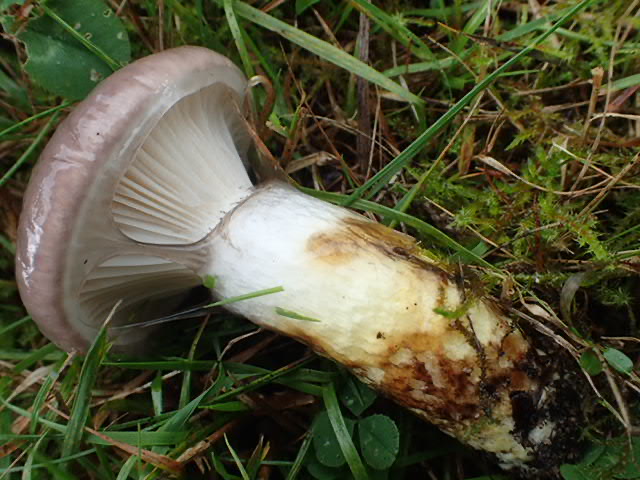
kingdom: Fungi
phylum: Basidiomycota
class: Agaricomycetes
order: Boletales
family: Gomphidiaceae
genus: Gomphidius
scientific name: Gomphidius glutinosus
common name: grå slimslør
